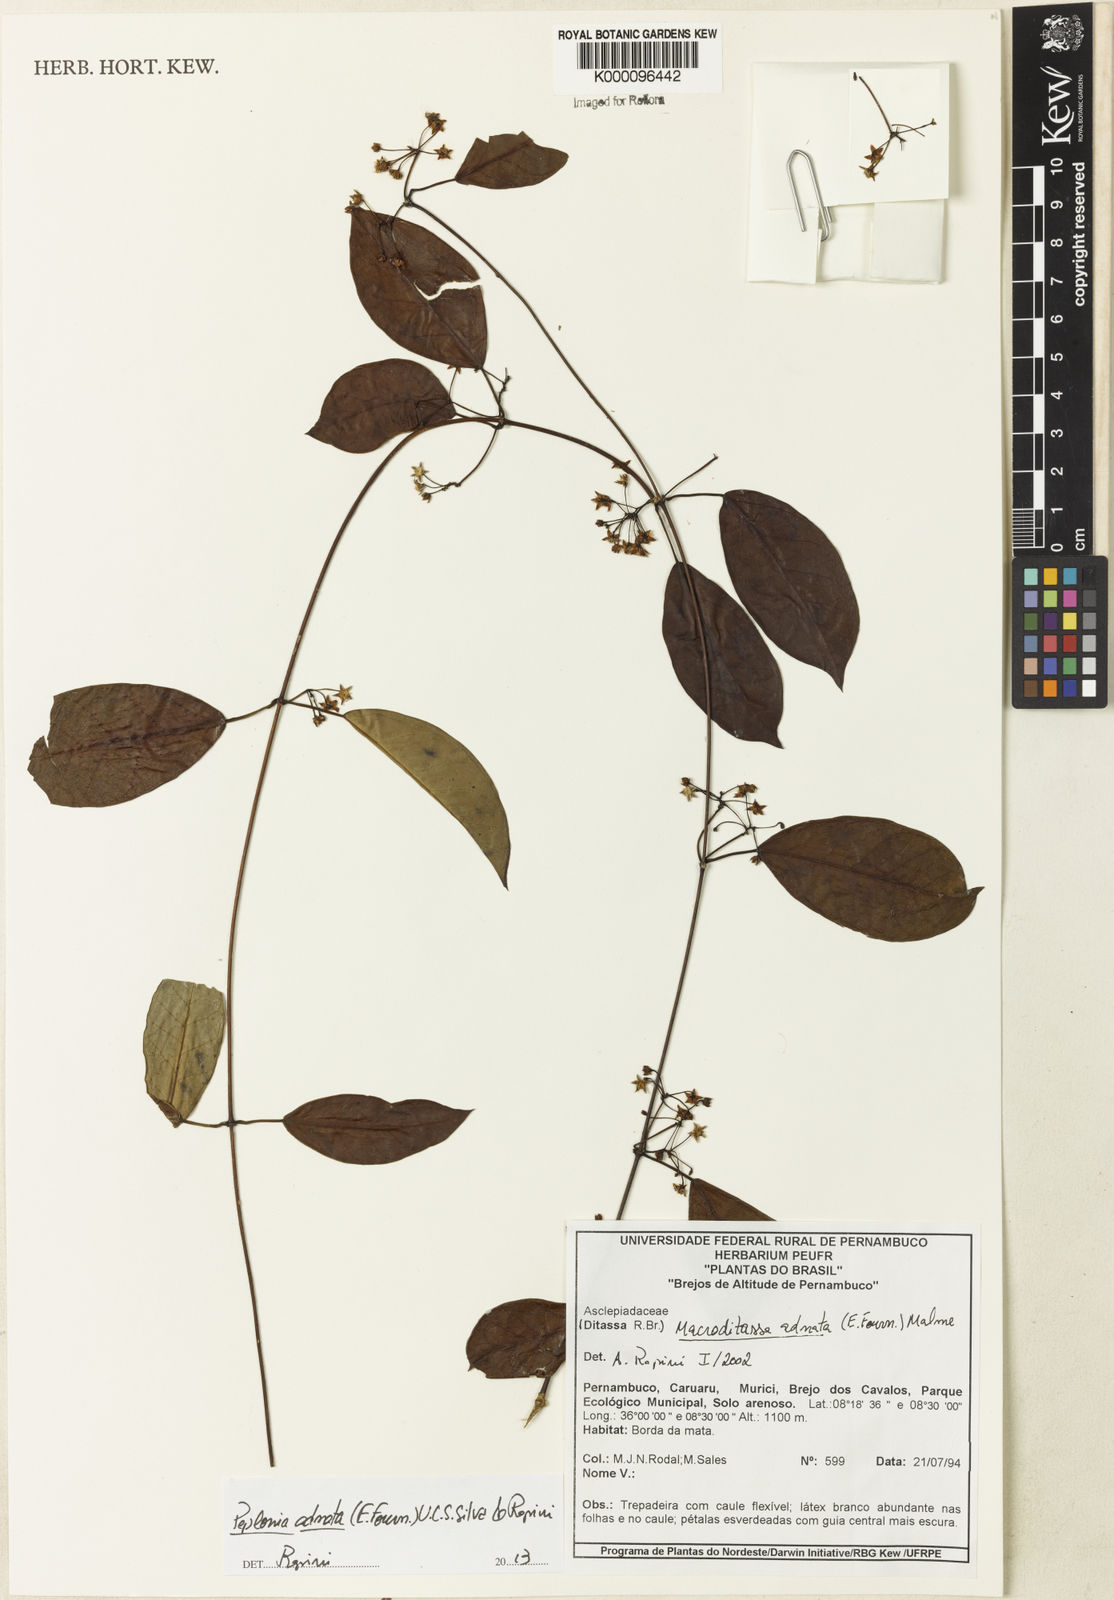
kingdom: Plantae
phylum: Tracheophyta
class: Magnoliopsida
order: Gentianales
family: Apocynaceae
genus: Peplonia
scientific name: Peplonia adnata
